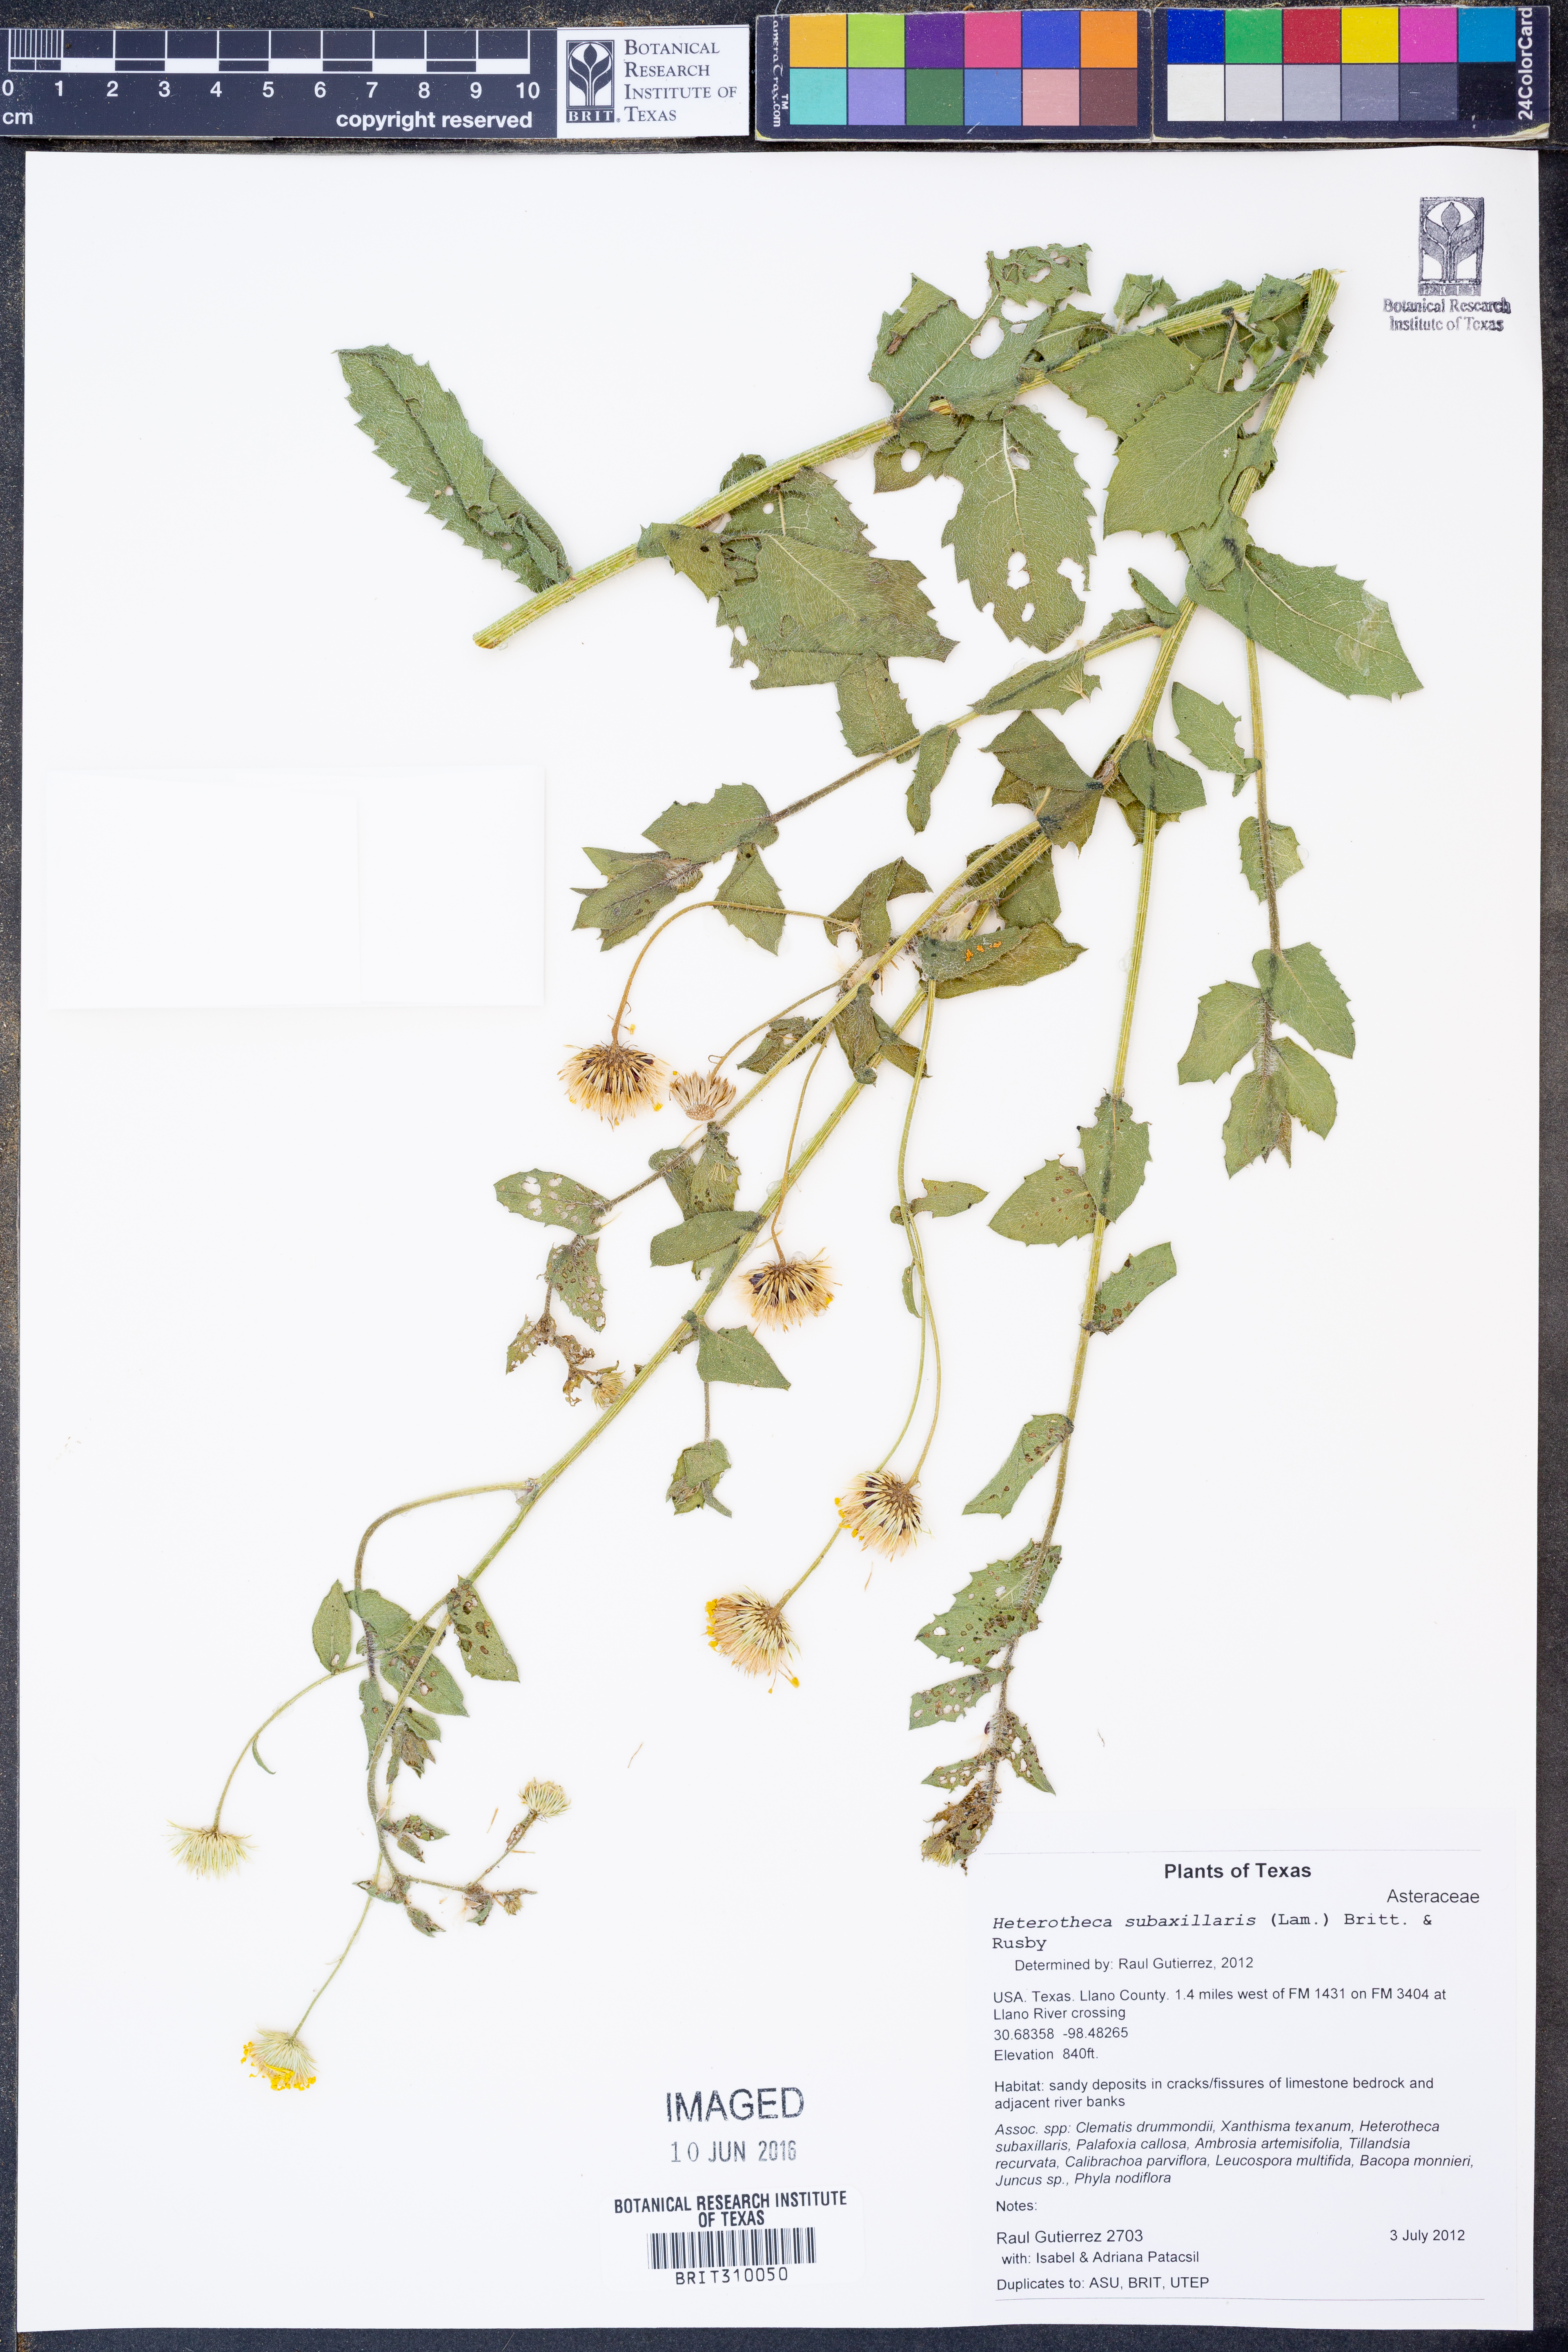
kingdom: Plantae
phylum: Tracheophyta
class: Magnoliopsida
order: Asterales
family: Asteraceae
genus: Heterotheca
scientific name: Heterotheca subaxillaris
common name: Camphorweed
